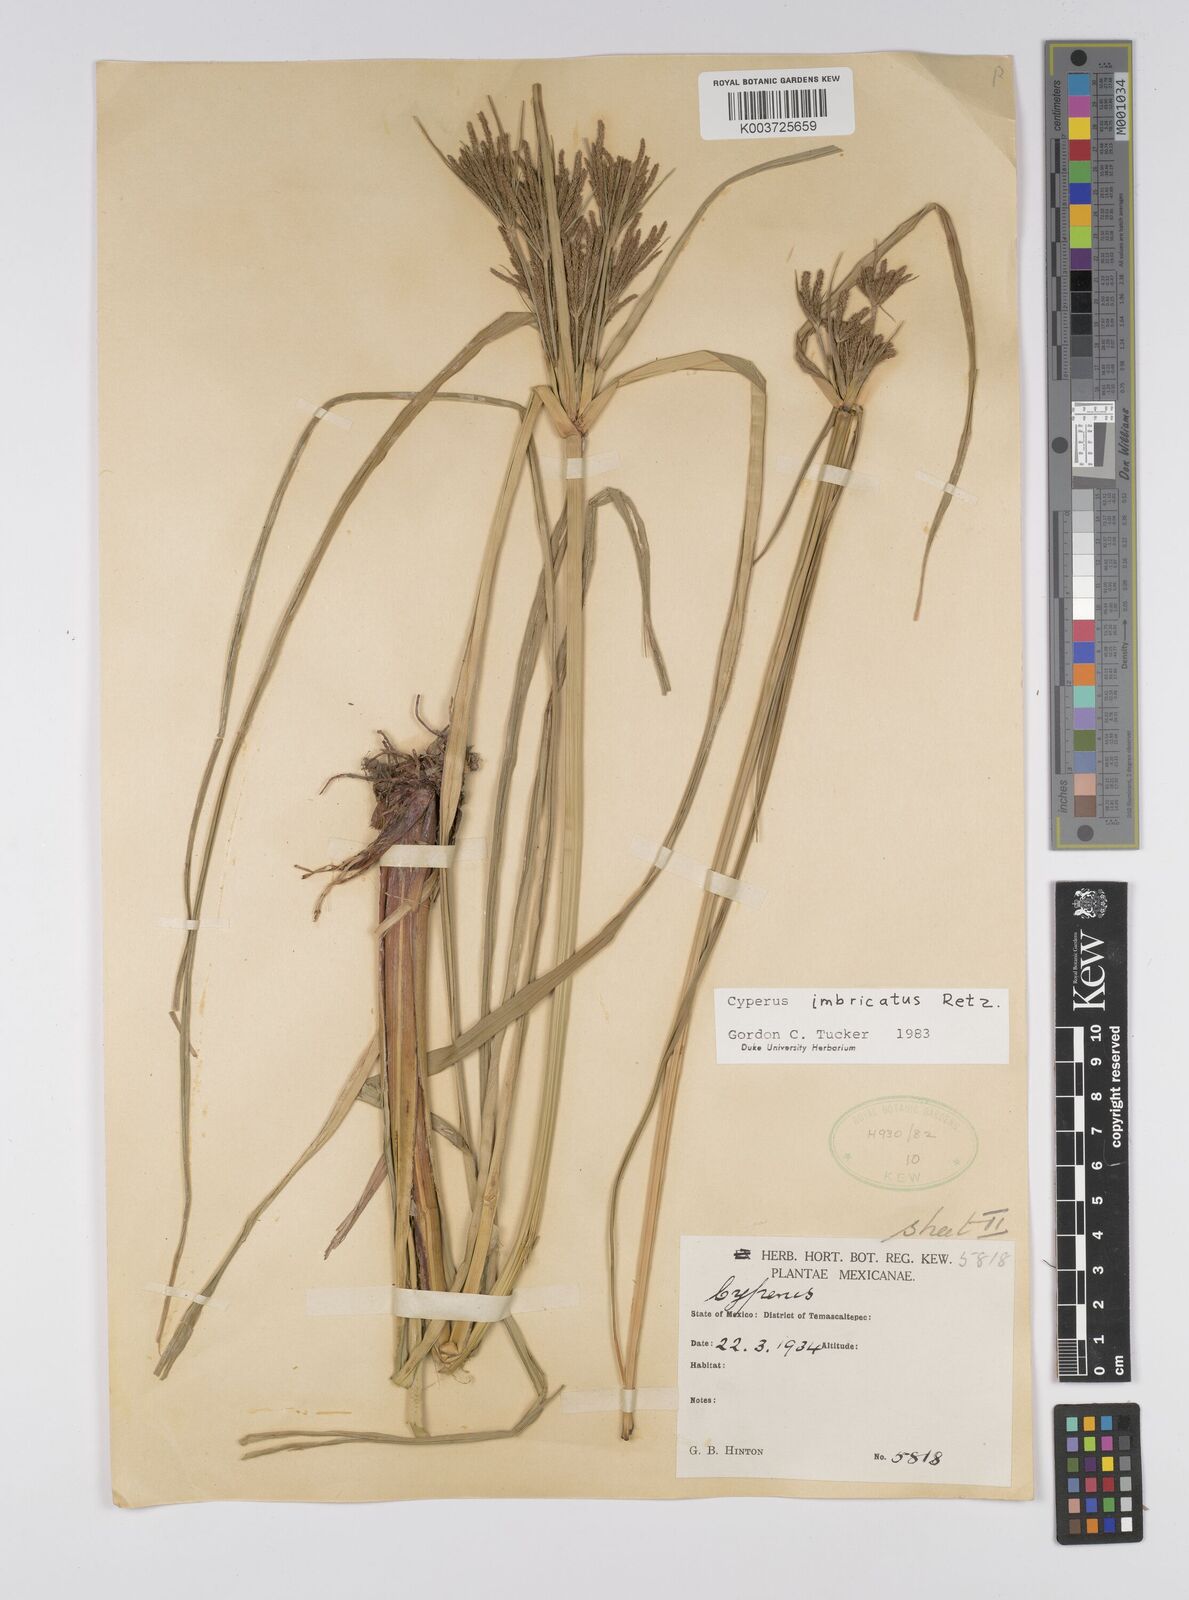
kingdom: Plantae
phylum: Tracheophyta
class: Liliopsida
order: Poales
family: Cyperaceae
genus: Cyperus
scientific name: Cyperus imbricatus
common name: Shingle flatsedge
